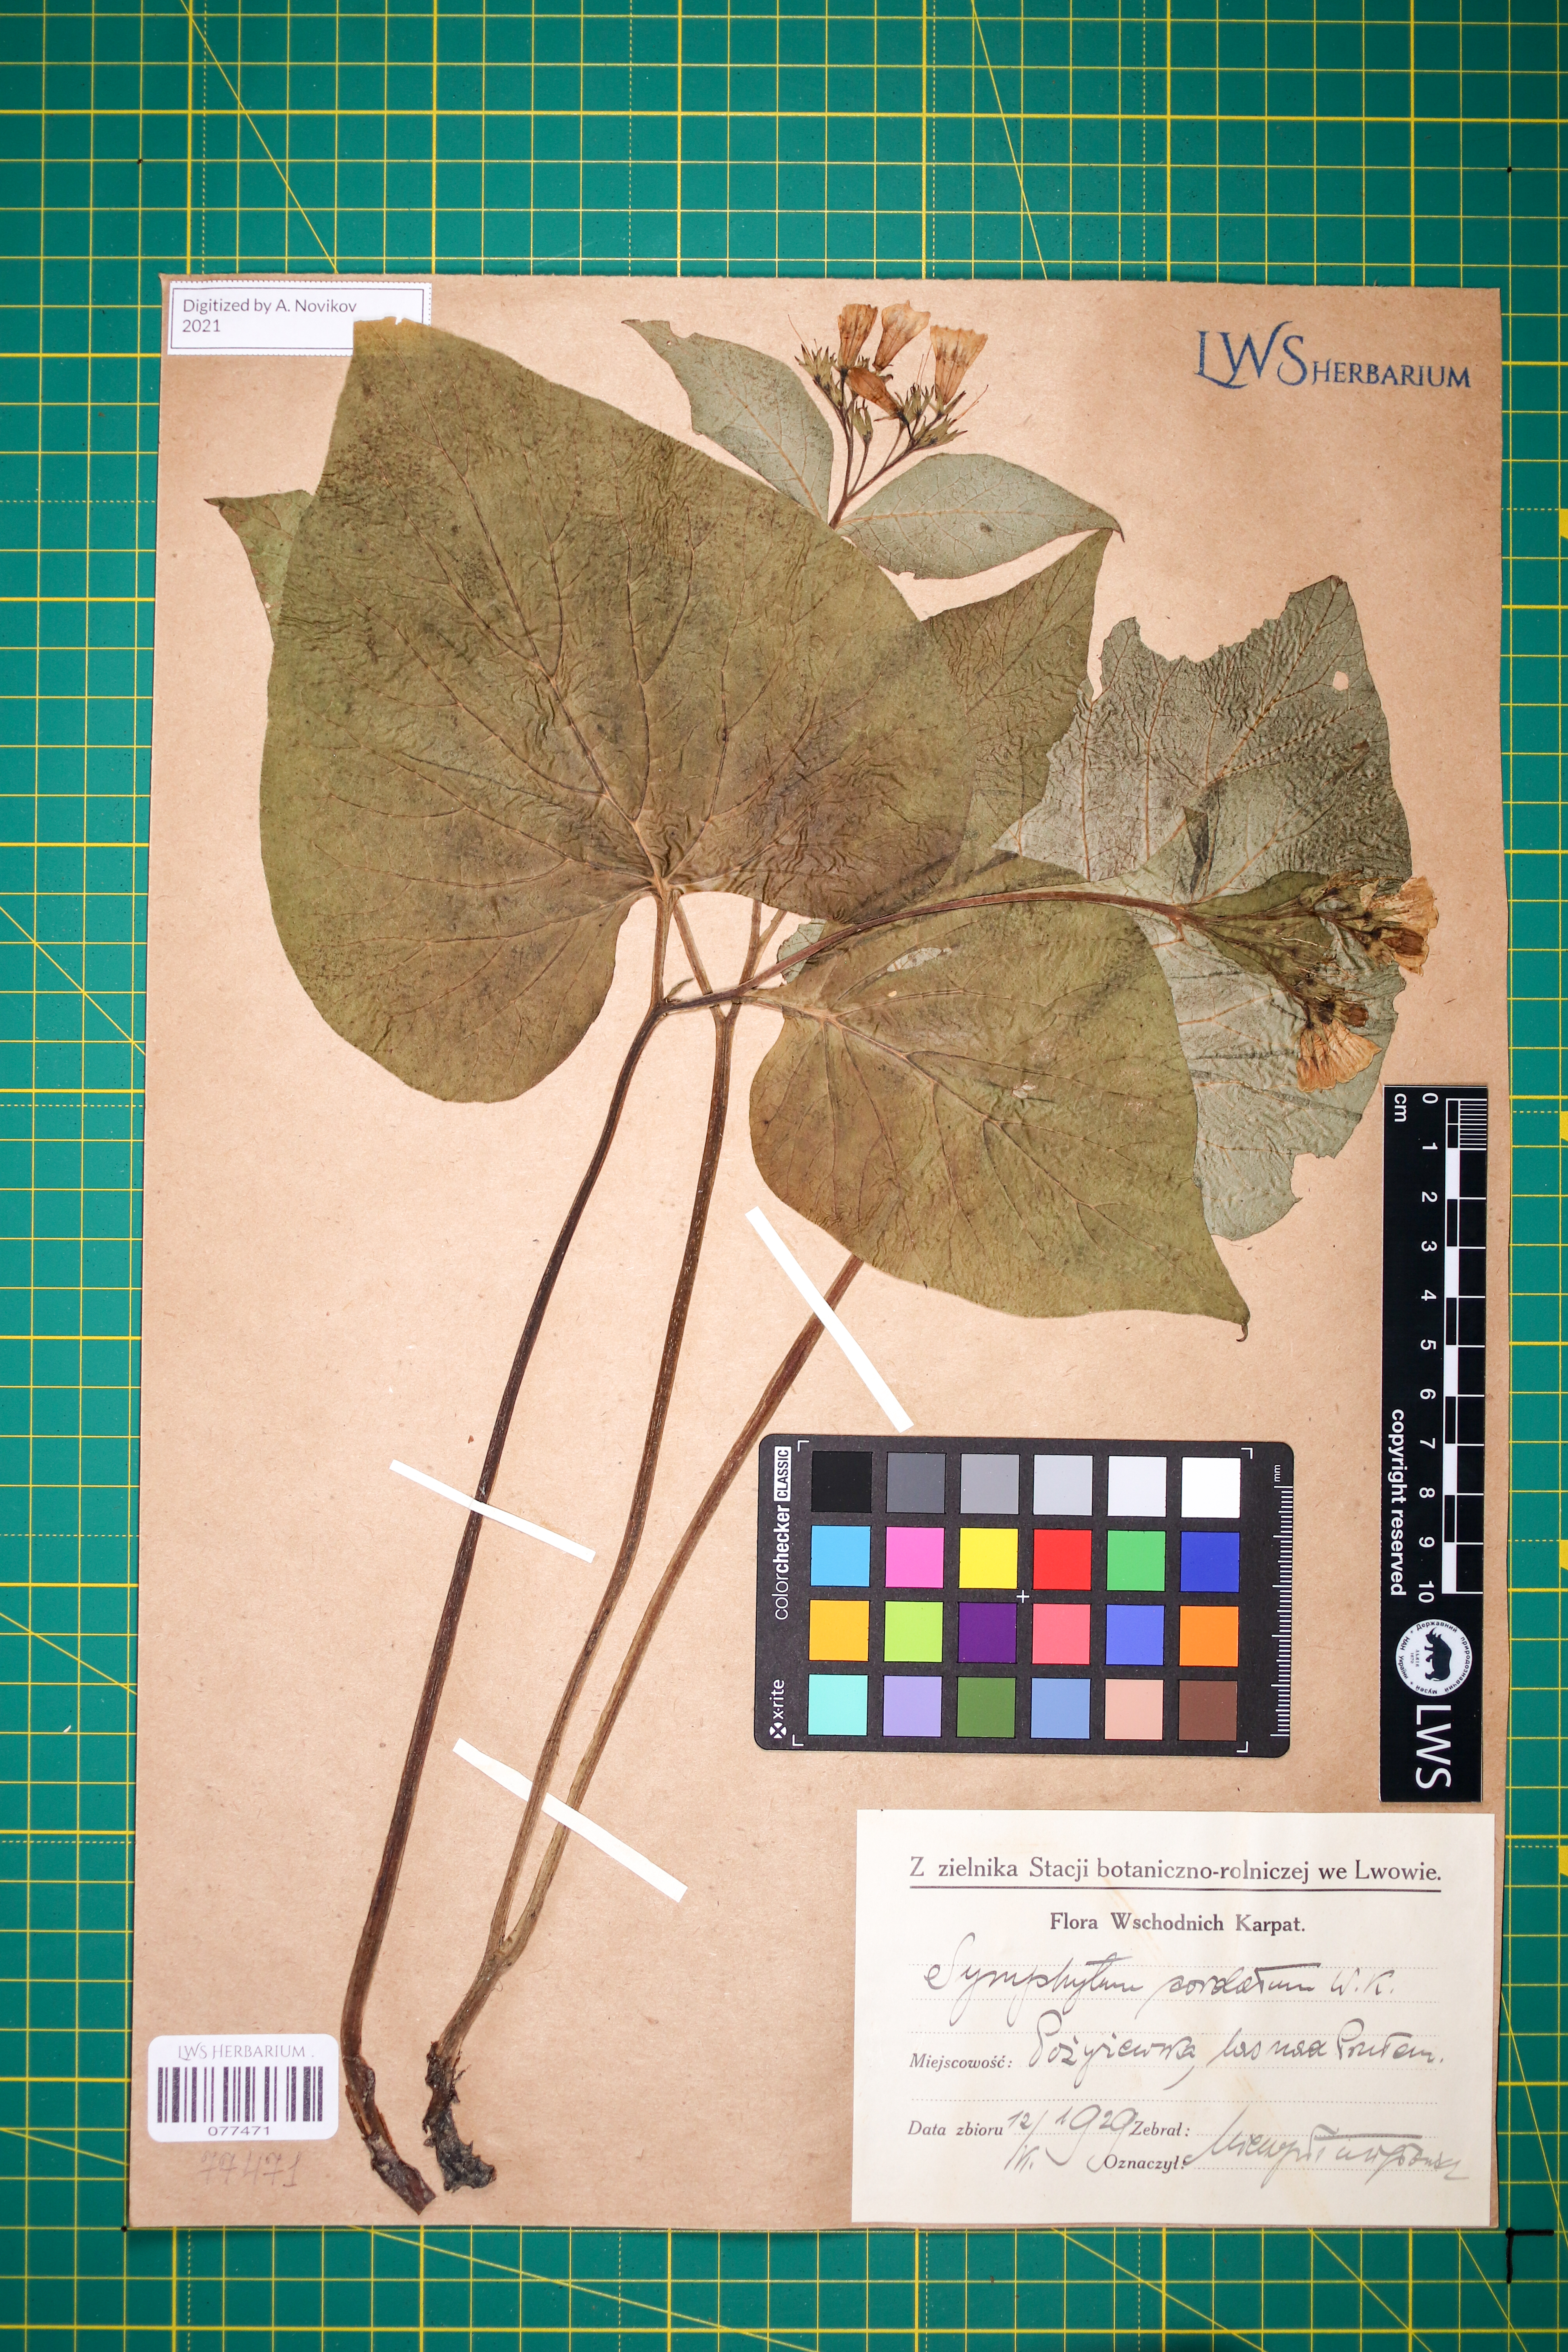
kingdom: Plantae
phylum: Tracheophyta
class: Magnoliopsida
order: Boraginales
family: Boraginaceae
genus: Symphytum
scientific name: Symphytum cordatum
